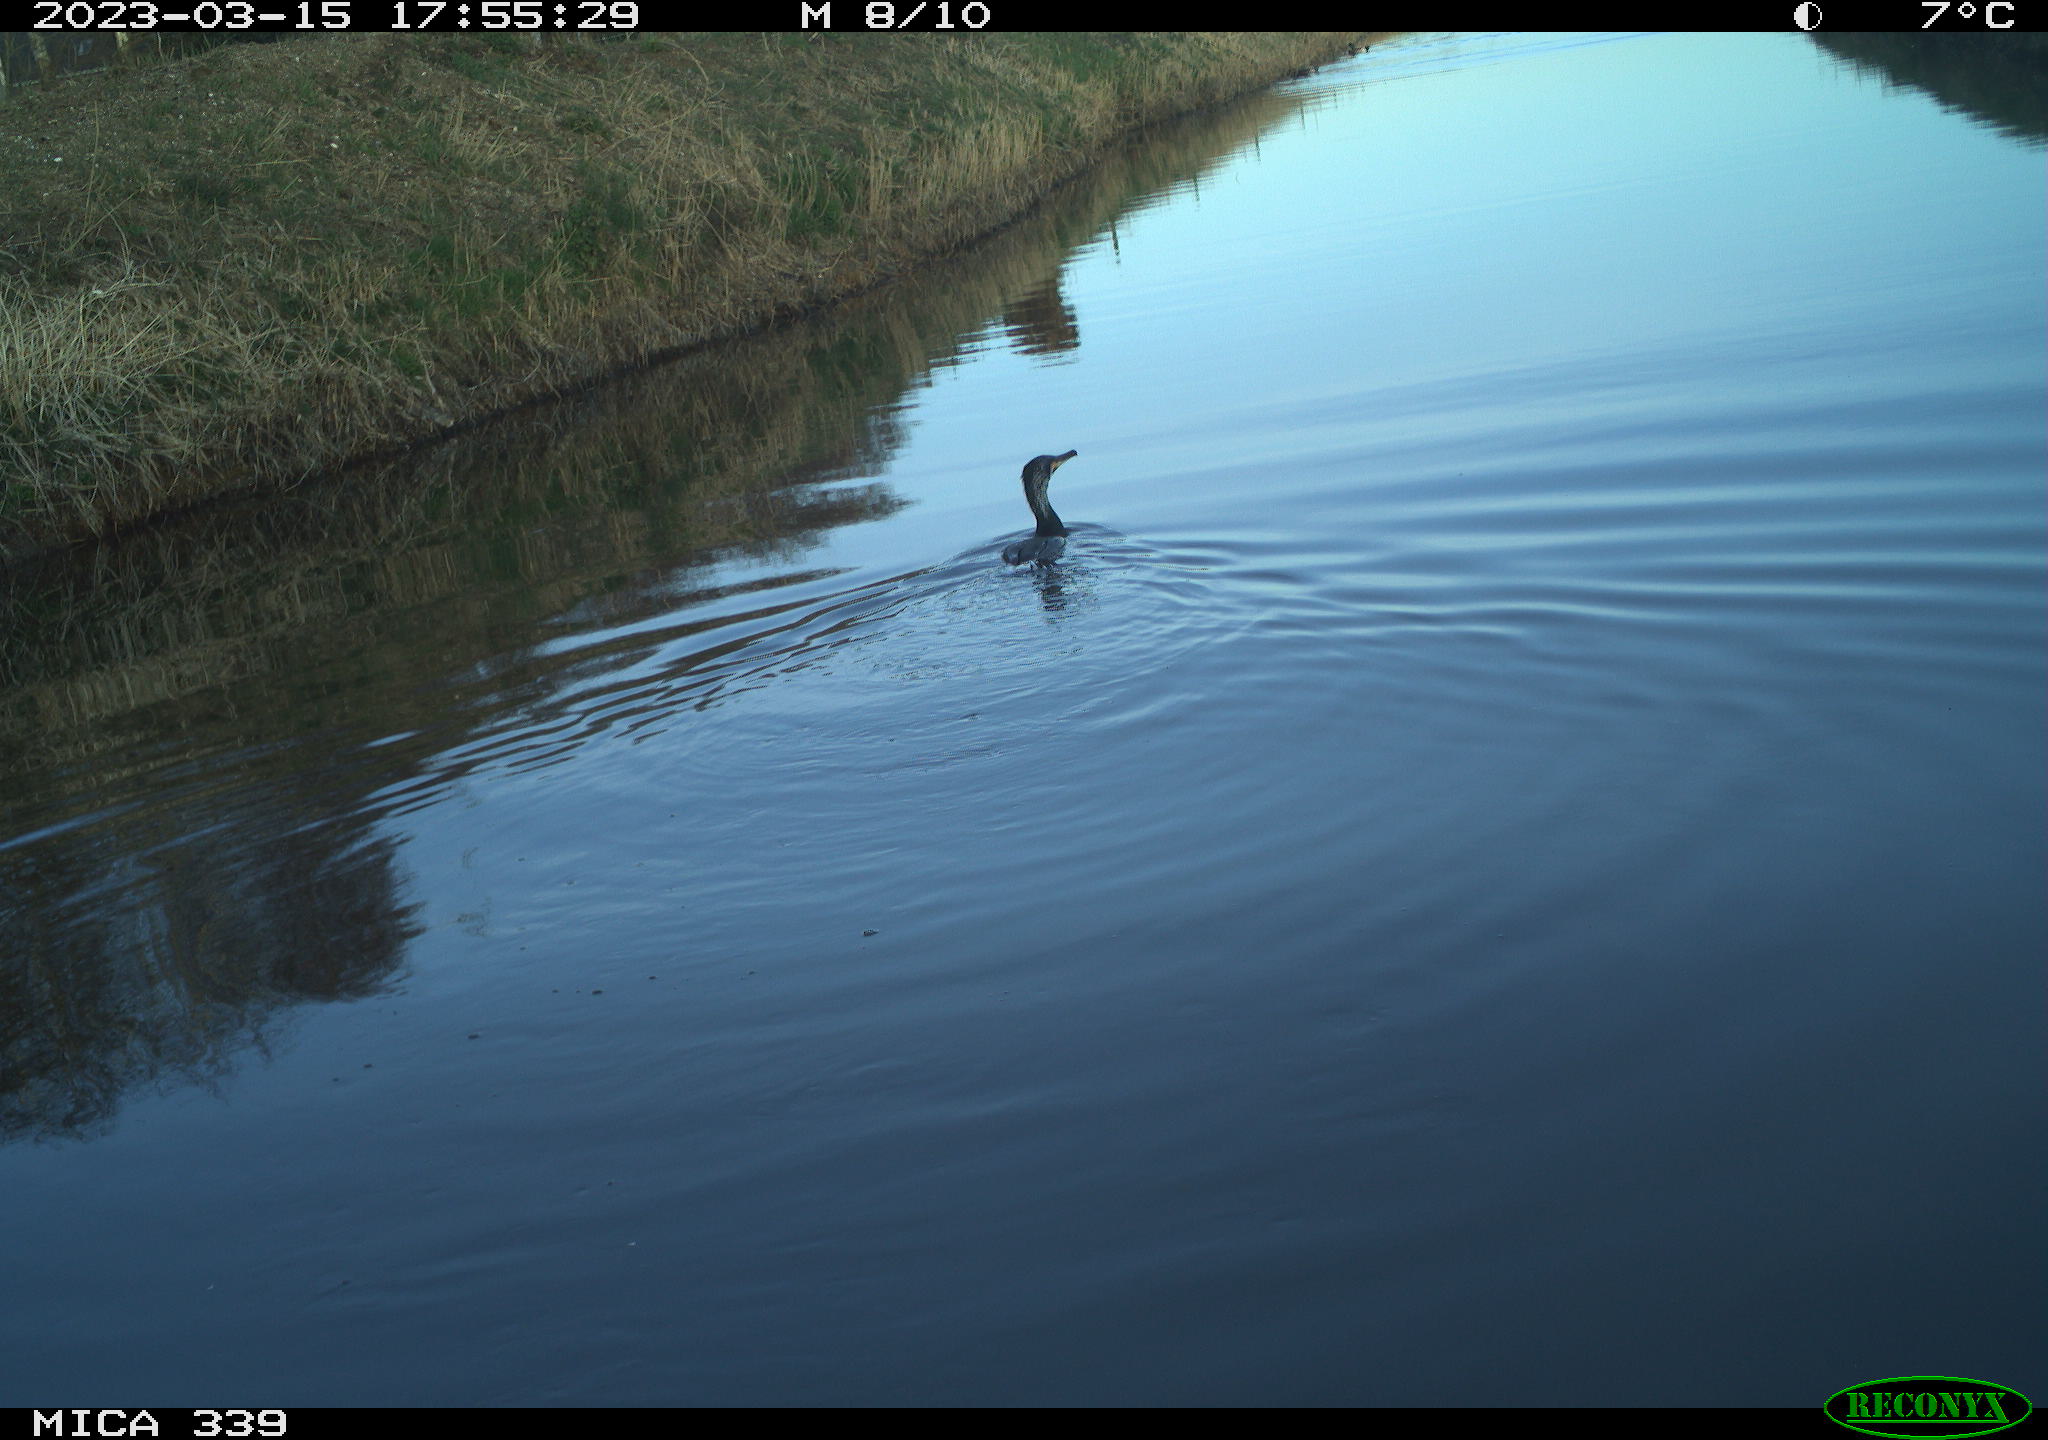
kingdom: Animalia
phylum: Chordata
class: Aves
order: Anseriformes
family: Anatidae
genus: Anas
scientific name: Anas
